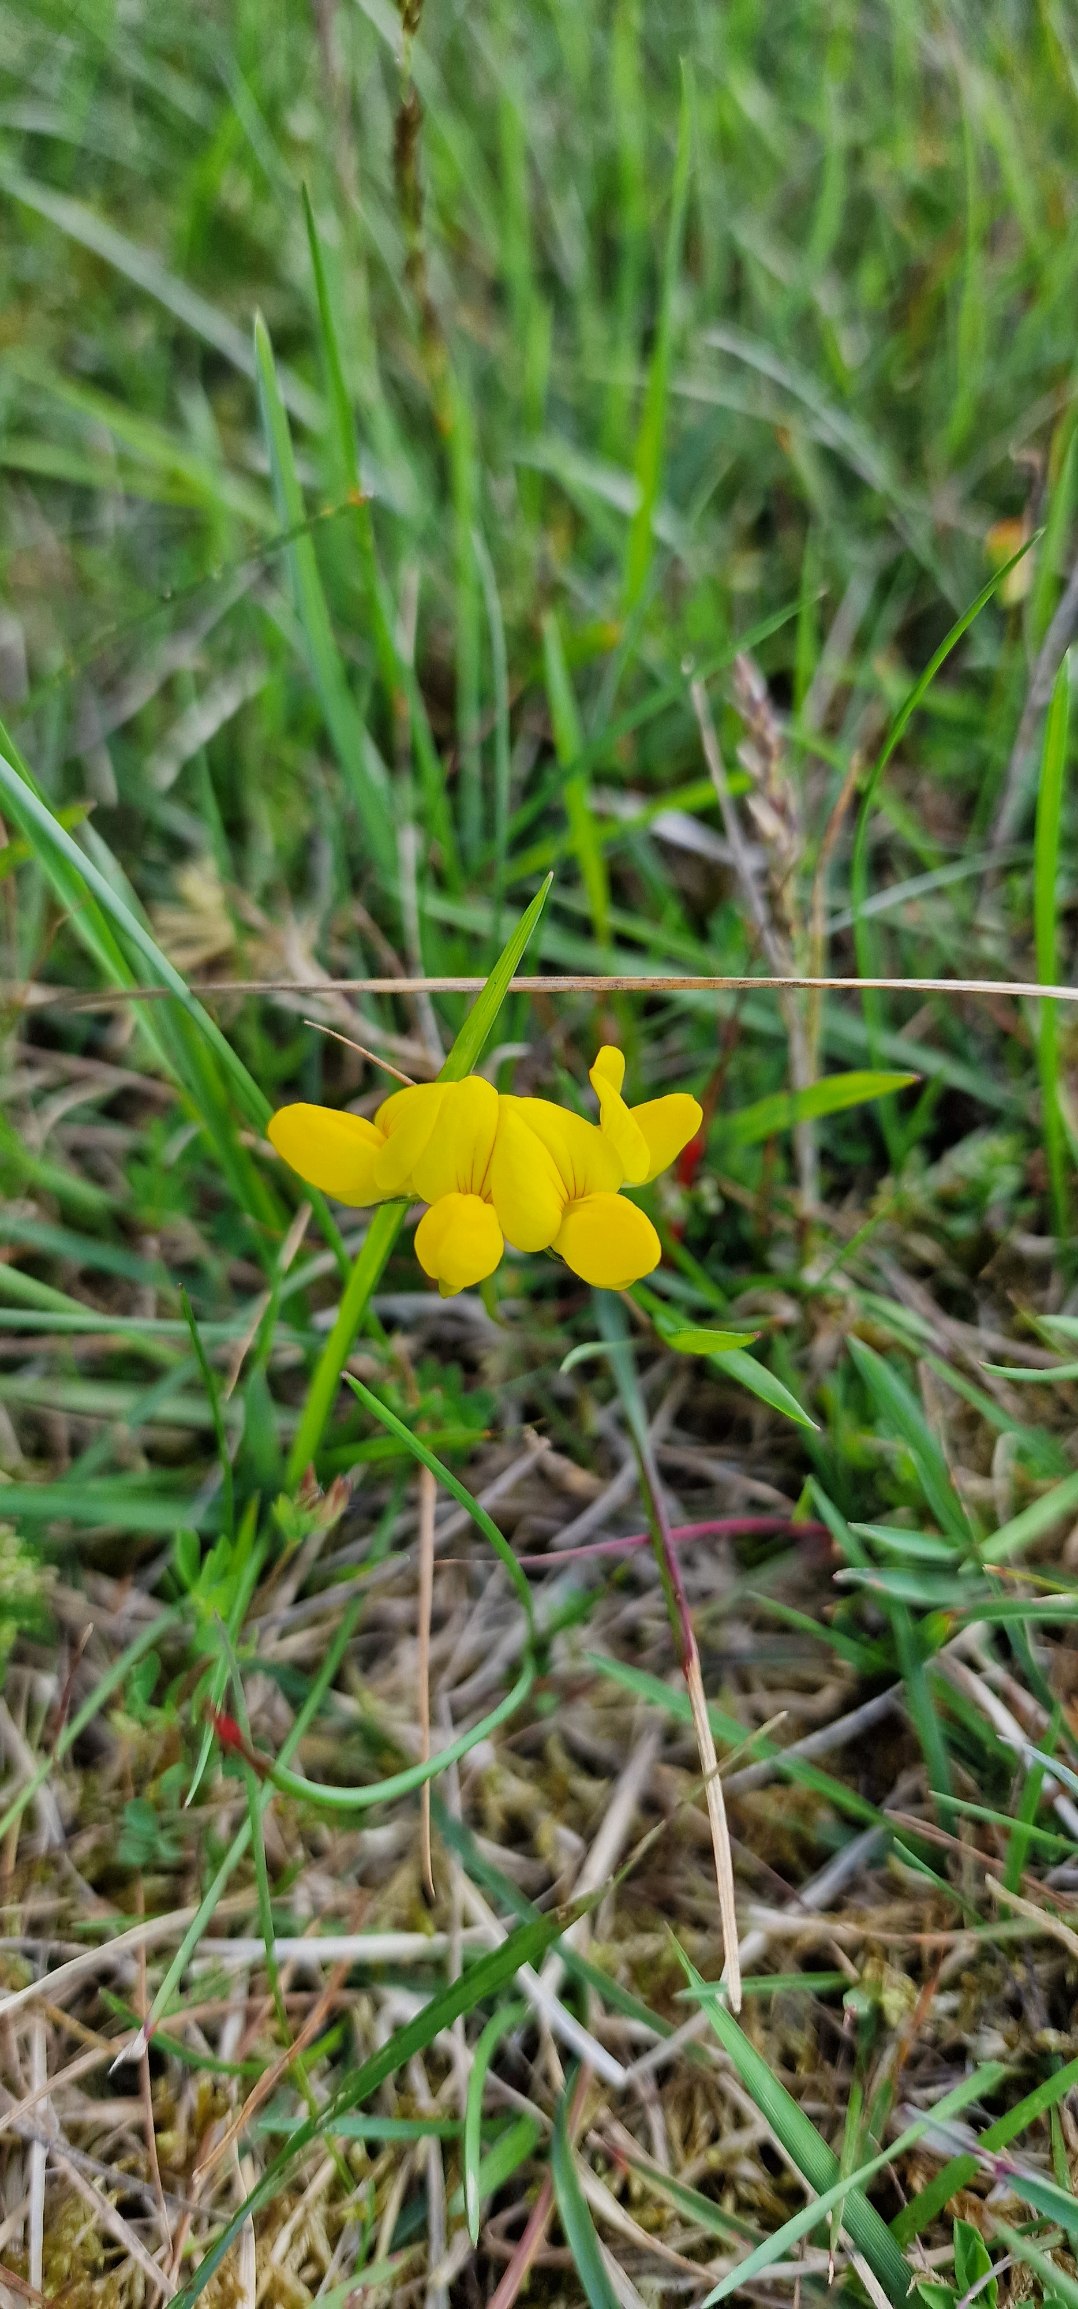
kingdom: Plantae
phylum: Tracheophyta
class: Magnoliopsida
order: Fabales
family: Fabaceae
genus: Lotus
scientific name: Lotus corniculatus
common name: Almindelig kællingetand
